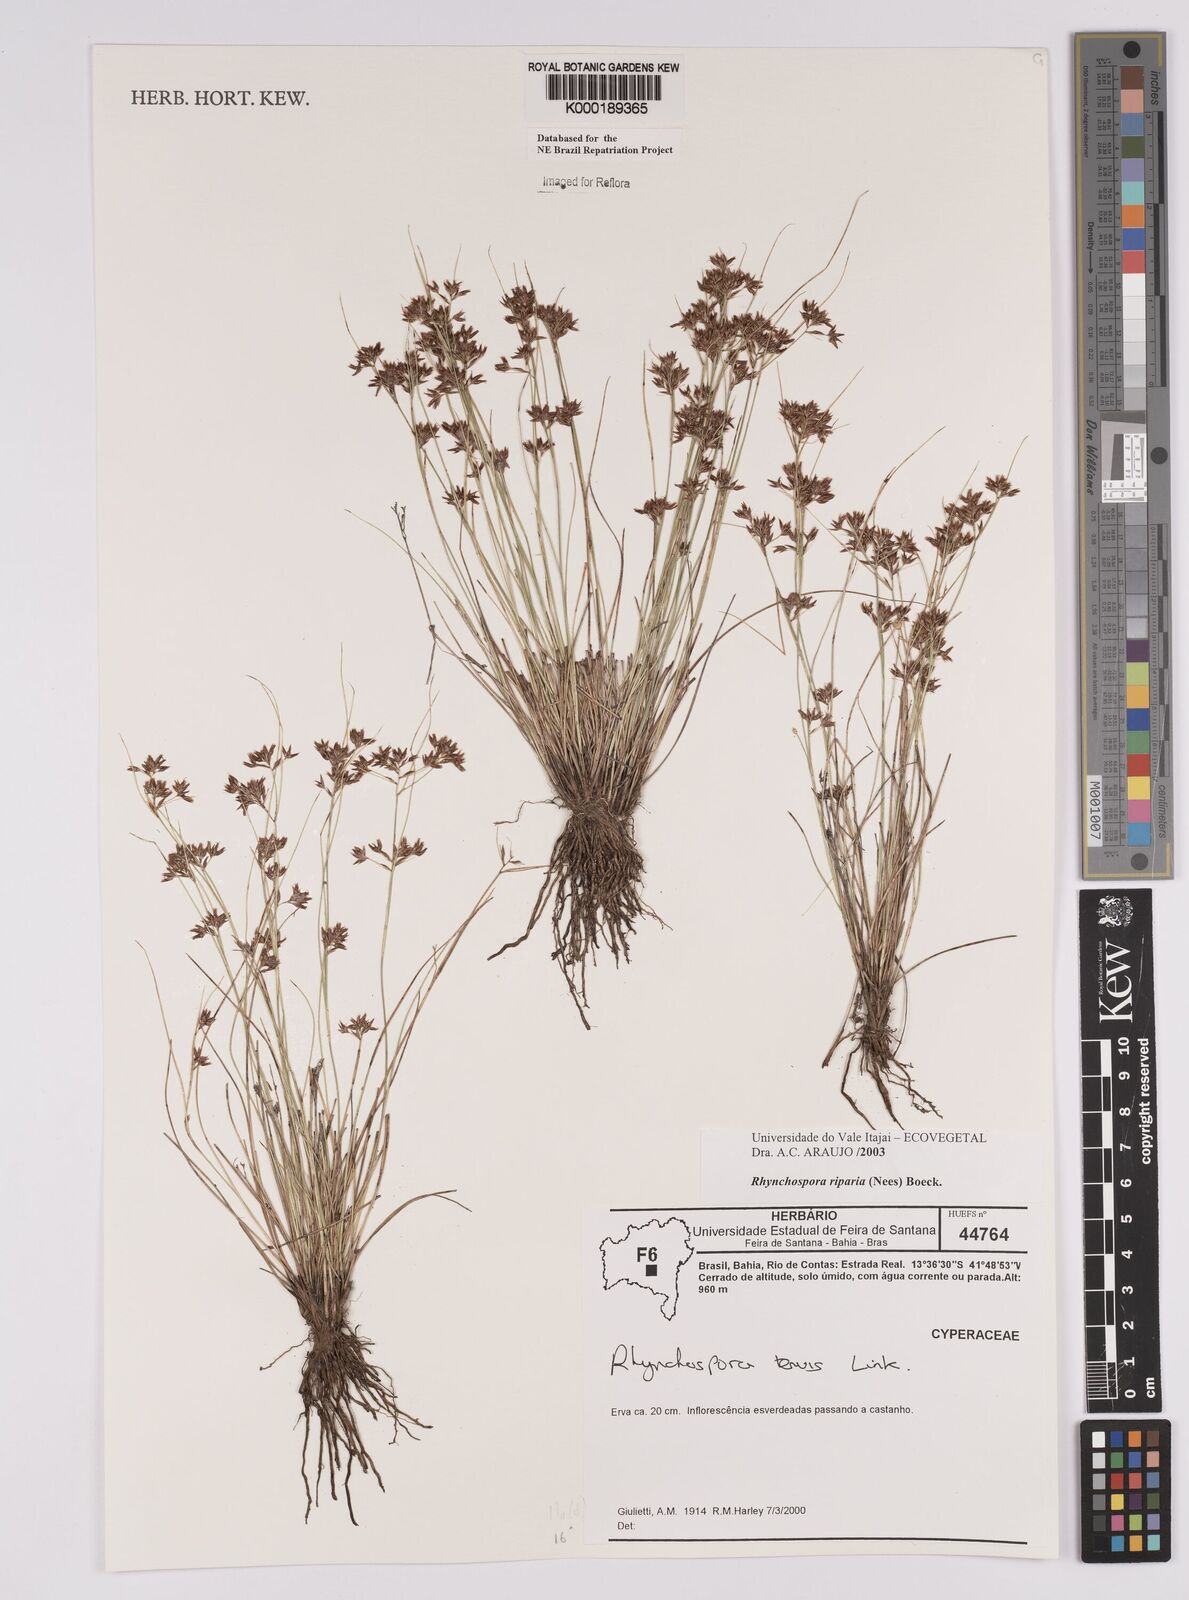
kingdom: Plantae
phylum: Tracheophyta
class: Liliopsida
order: Poales
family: Cyperaceae
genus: Rhynchospora
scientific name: Rhynchospora riparia
